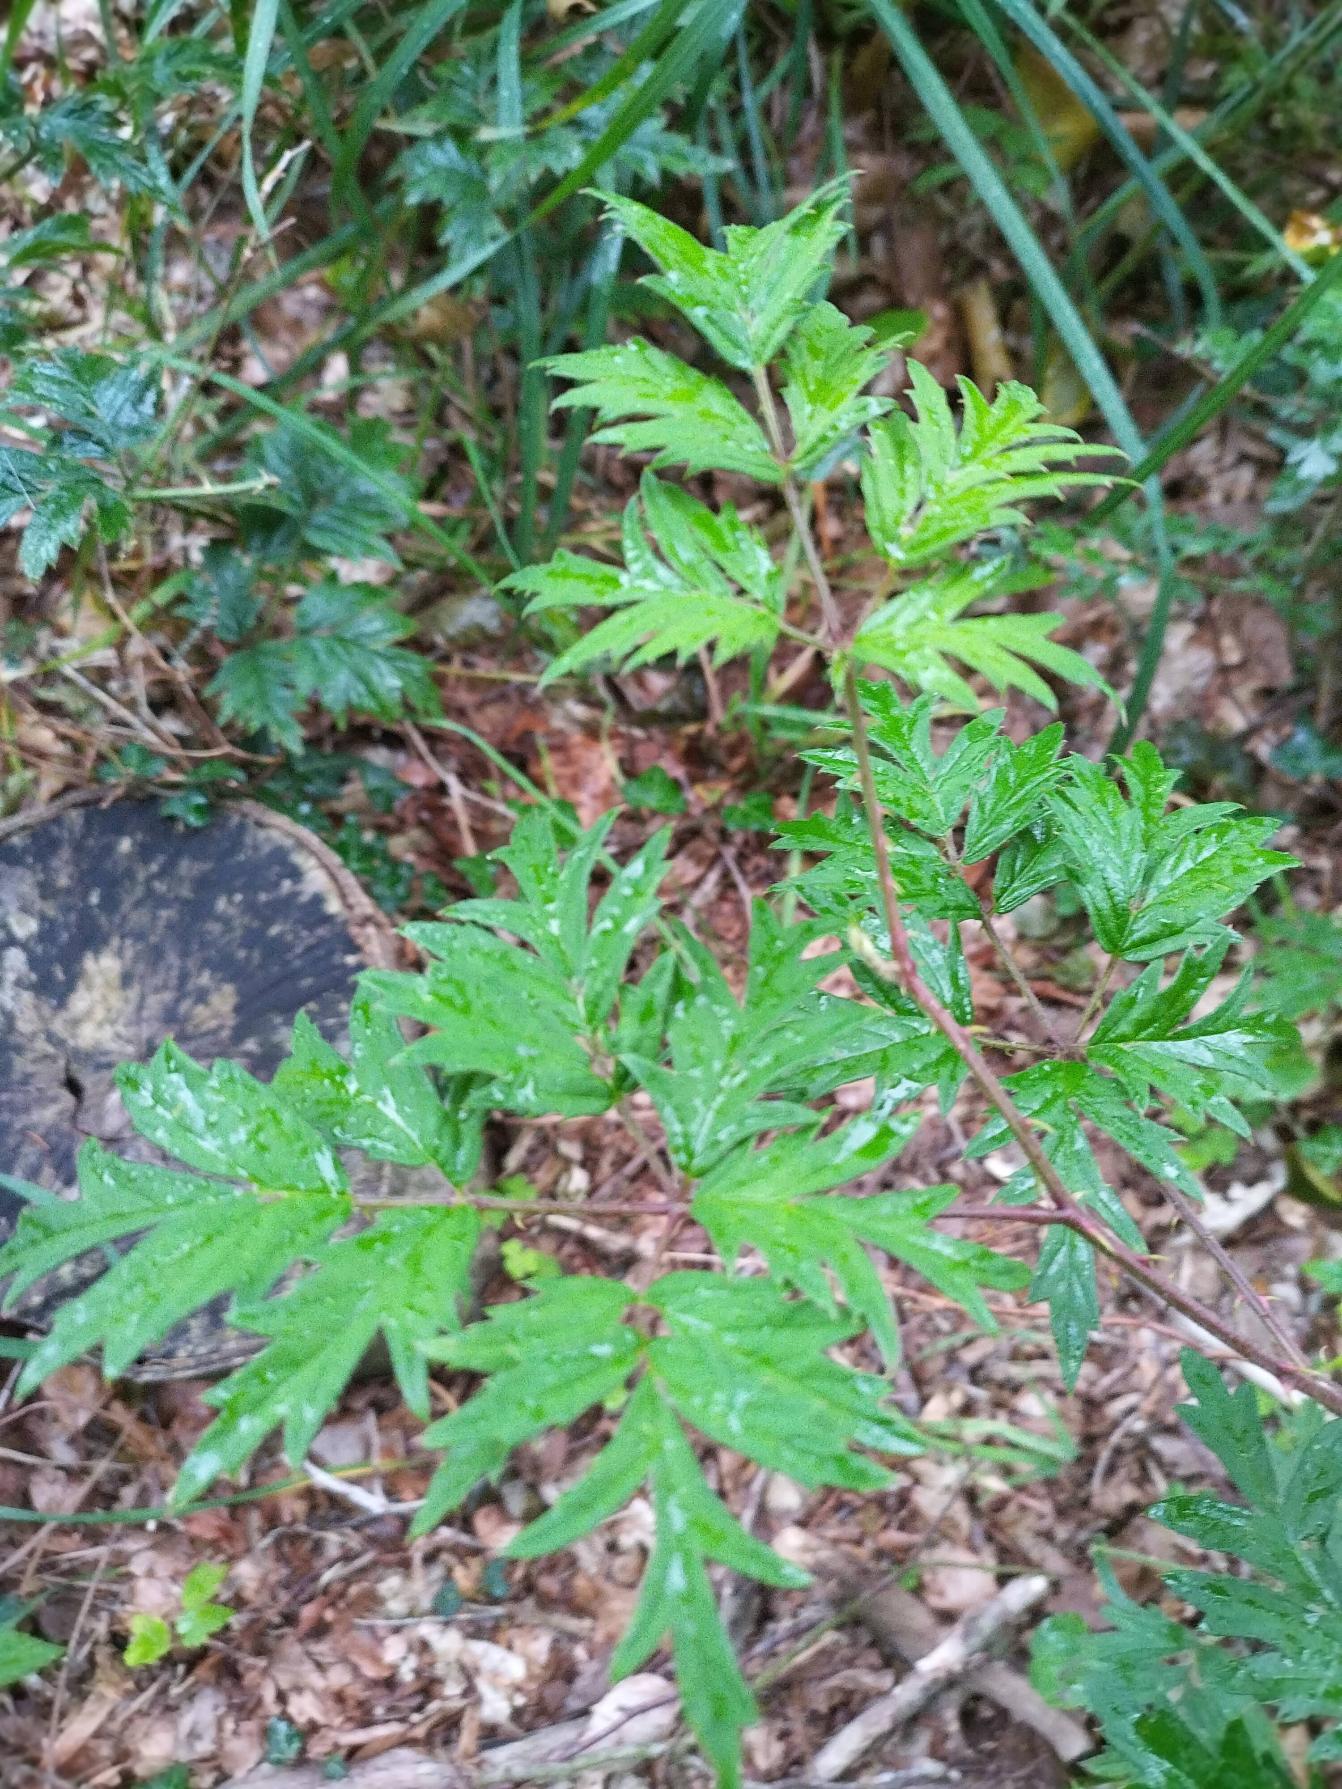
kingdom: Plantae
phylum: Tracheophyta
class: Magnoliopsida
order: Rosales
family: Rosaceae
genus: Rubus
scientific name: Rubus laciniatus
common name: Fliget brombær
